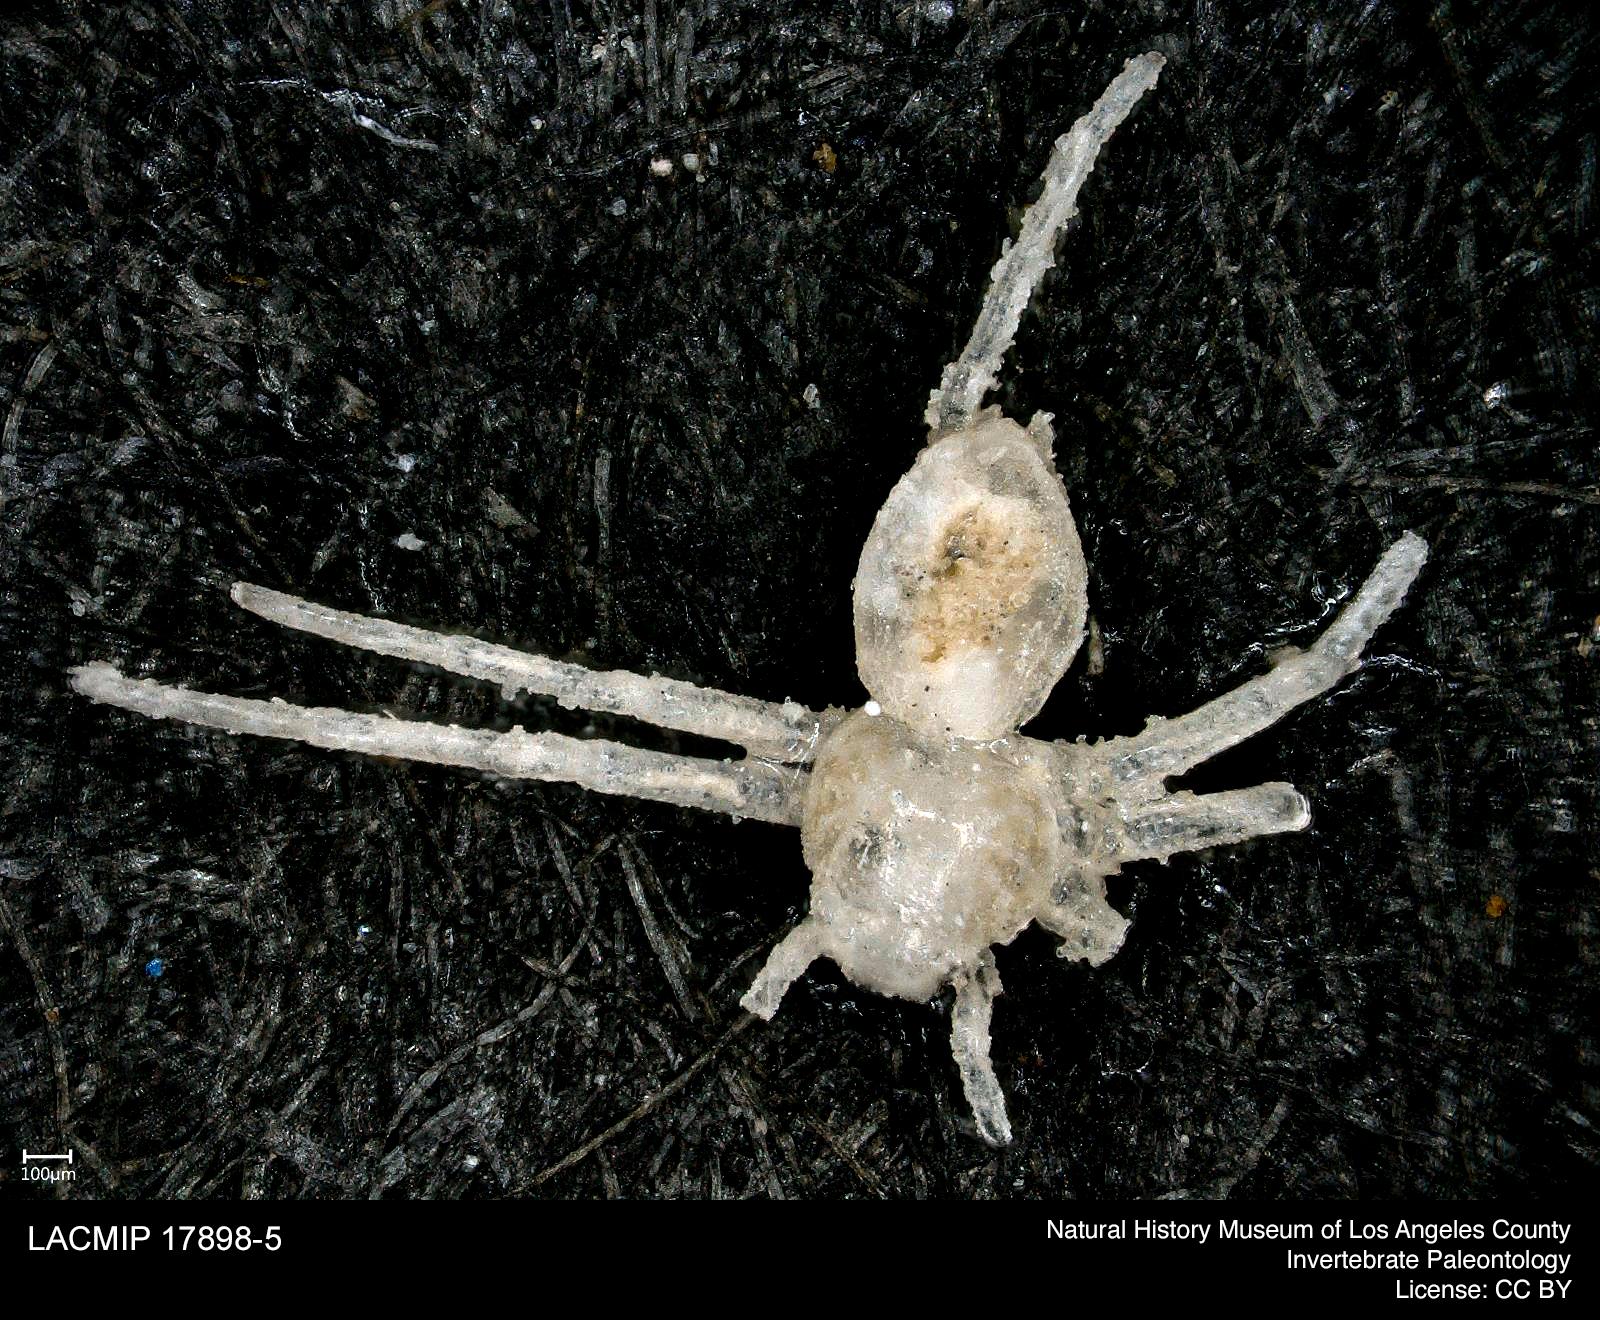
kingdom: Animalia
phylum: Arthropoda
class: Arachnida
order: Araneae
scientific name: Araneae
